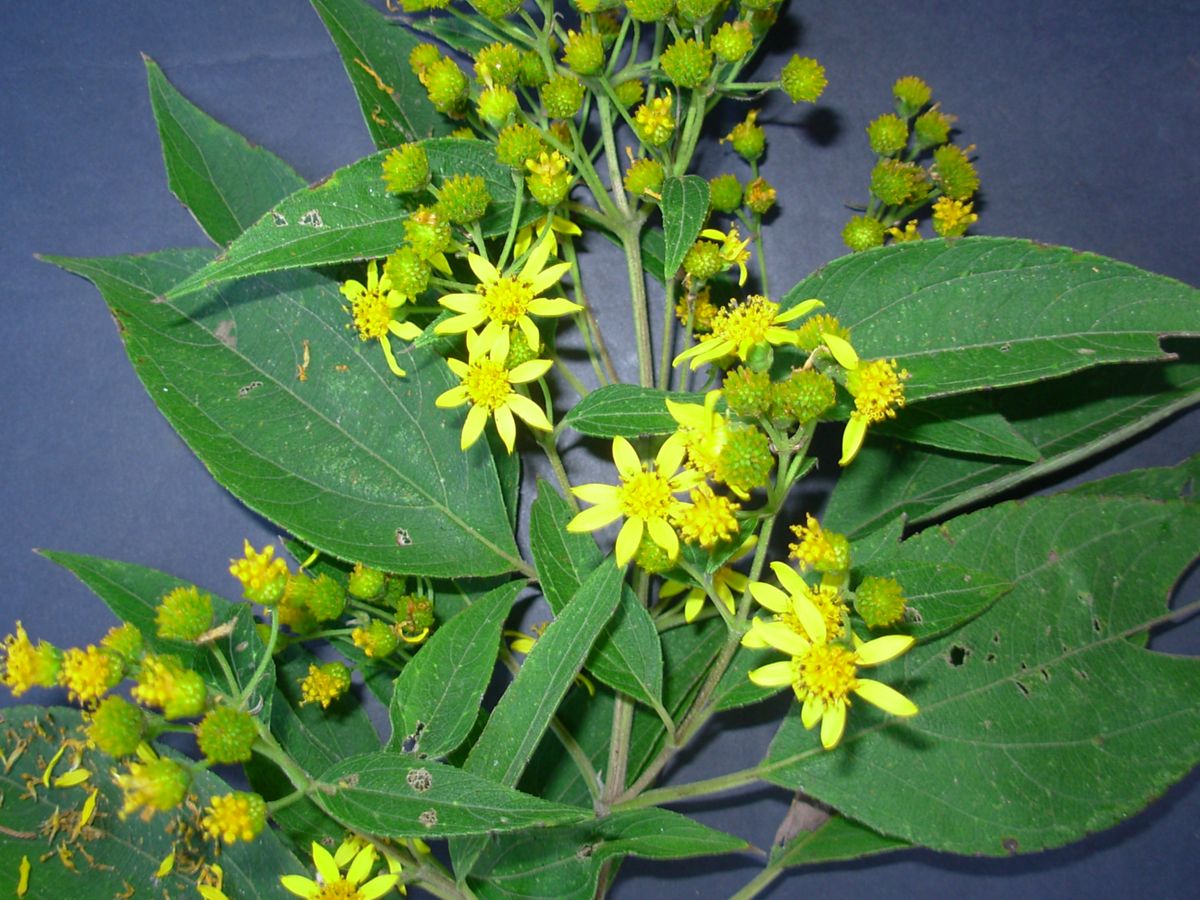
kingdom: Plantae
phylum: Tracheophyta
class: Magnoliopsida
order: Asterales
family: Asteraceae
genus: Perymenium
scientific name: Perymenium grande
